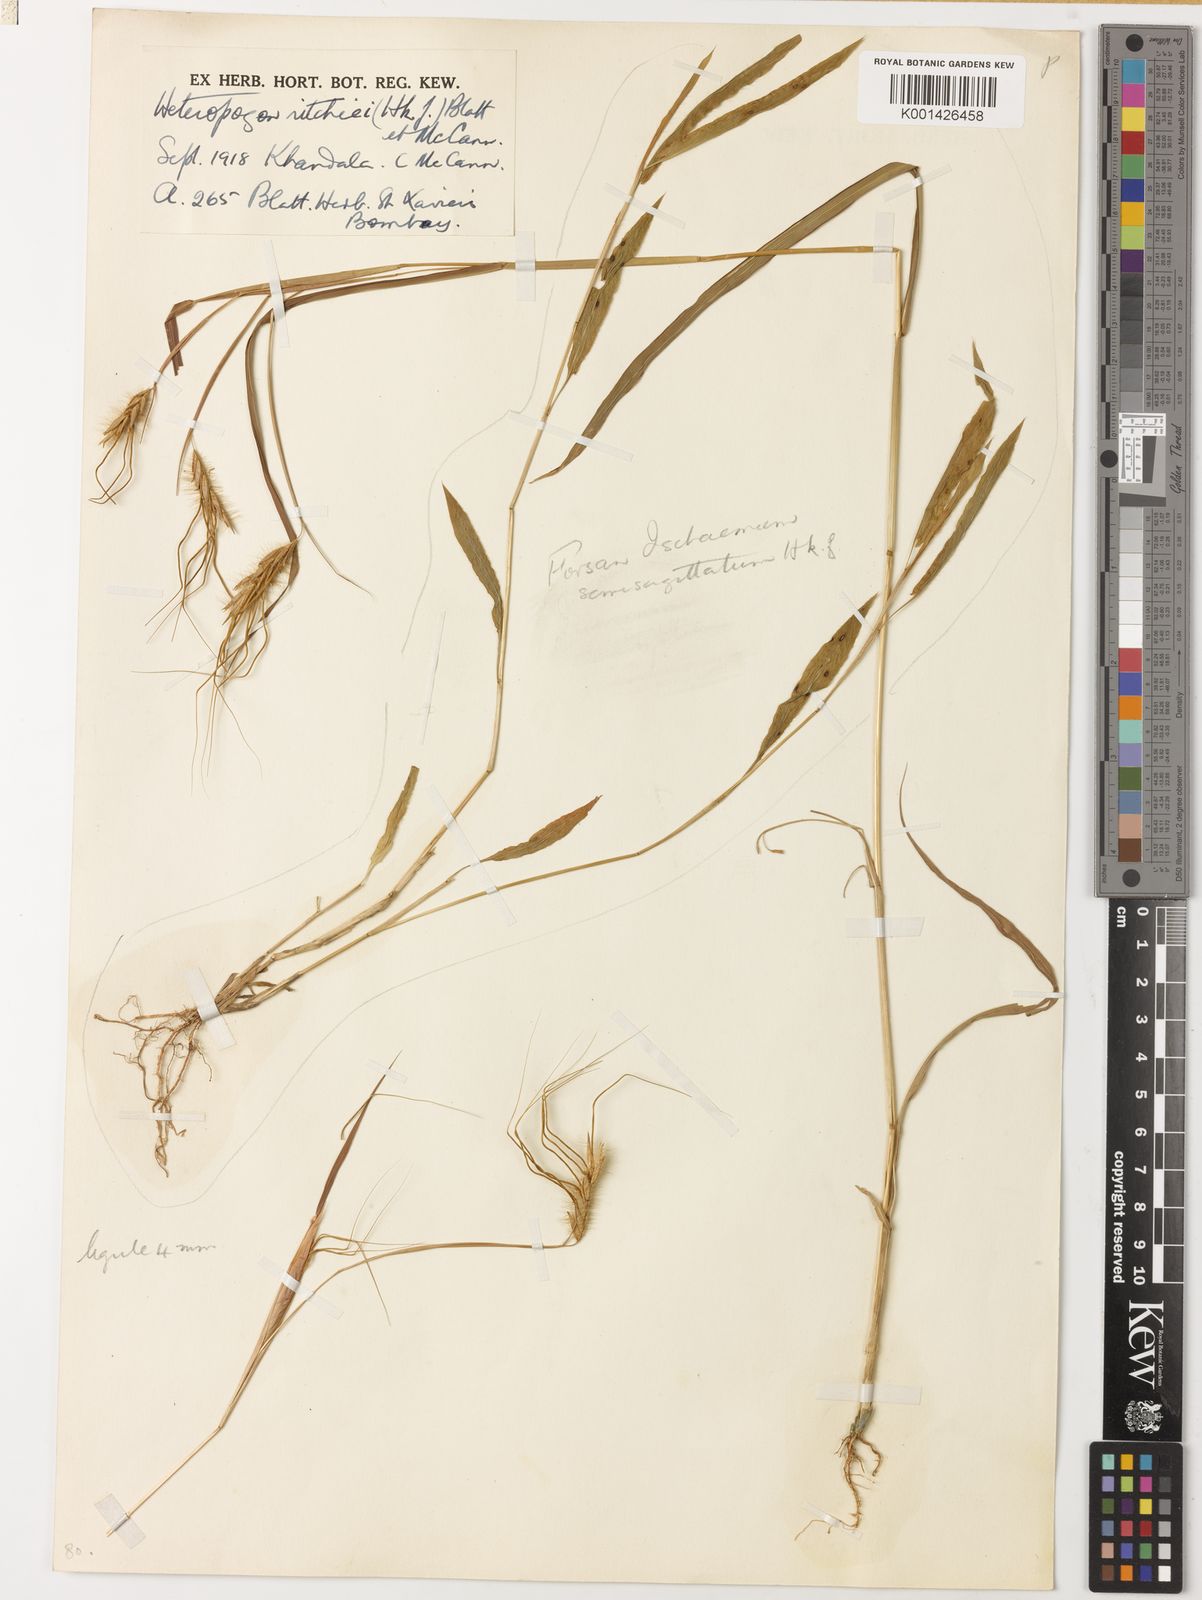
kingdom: Plantae
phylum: Tracheophyta
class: Liliopsida
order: Poales
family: Poaceae
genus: Ischaemum
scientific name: Ischaemum semisagittatum
